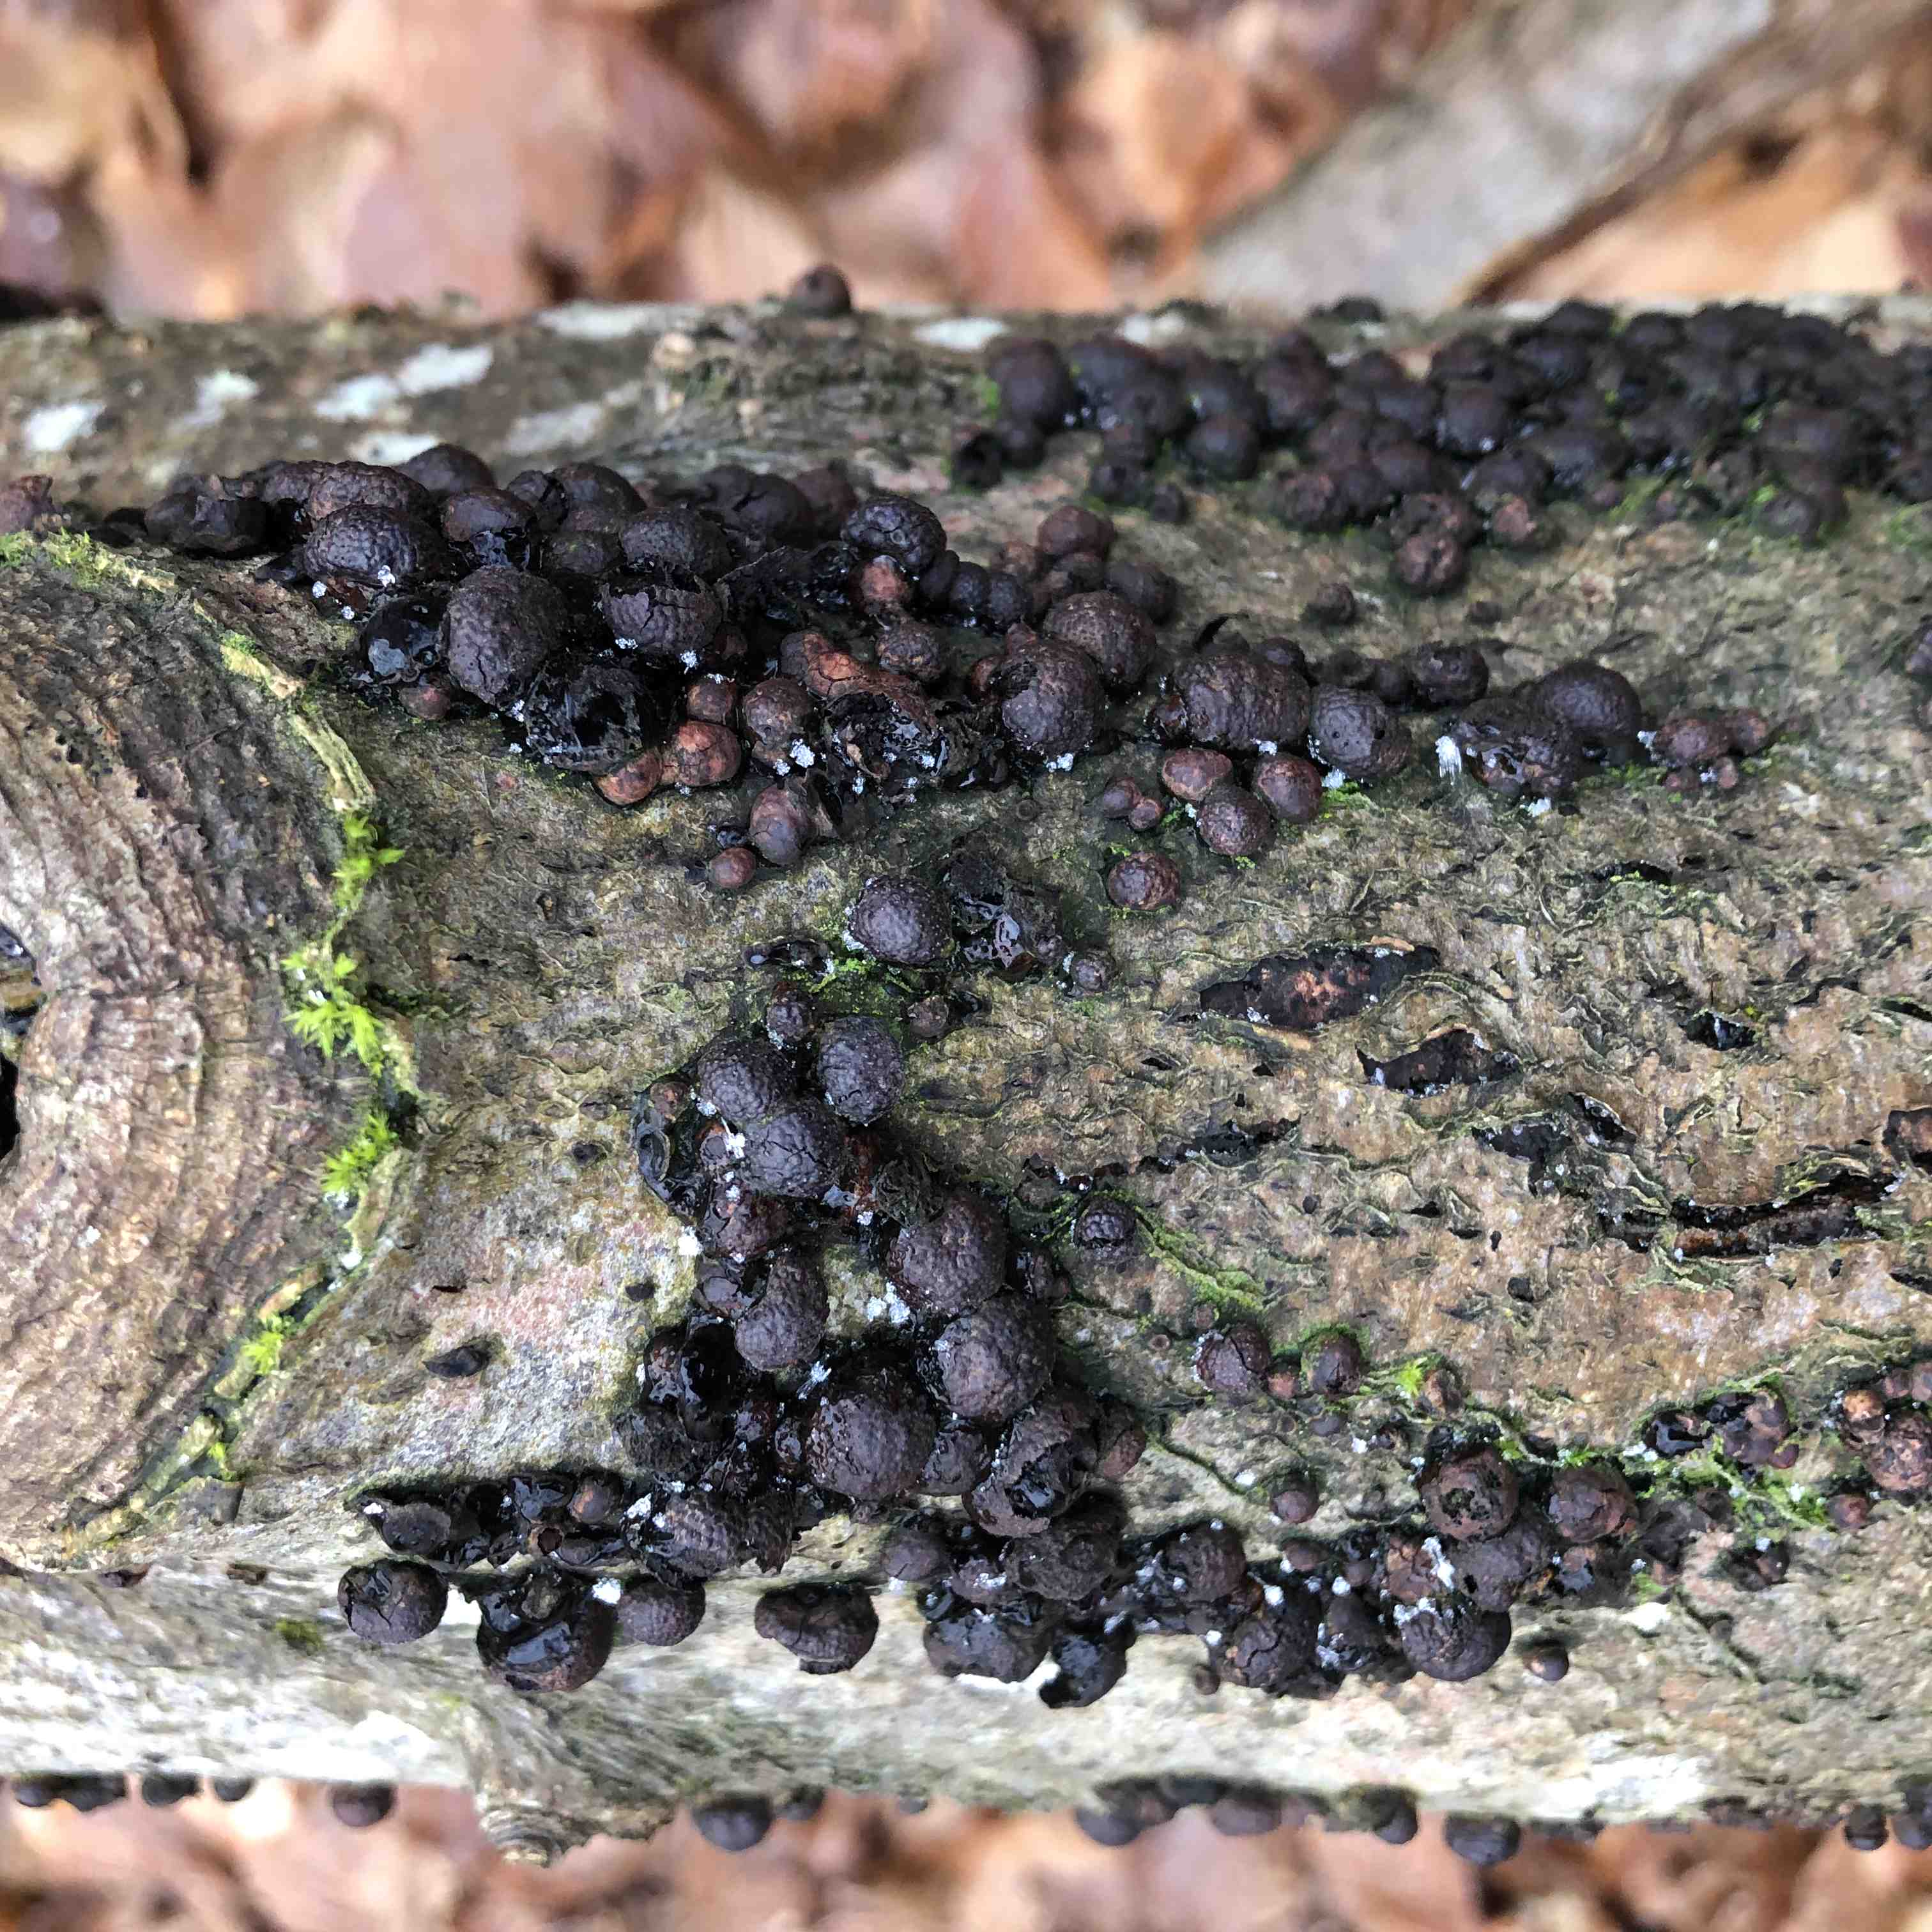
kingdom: Fungi
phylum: Ascomycota
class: Sordariomycetes
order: Xylariales
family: Hypoxylaceae
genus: Hypoxylon
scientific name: Hypoxylon fragiforme
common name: kuljordbær
